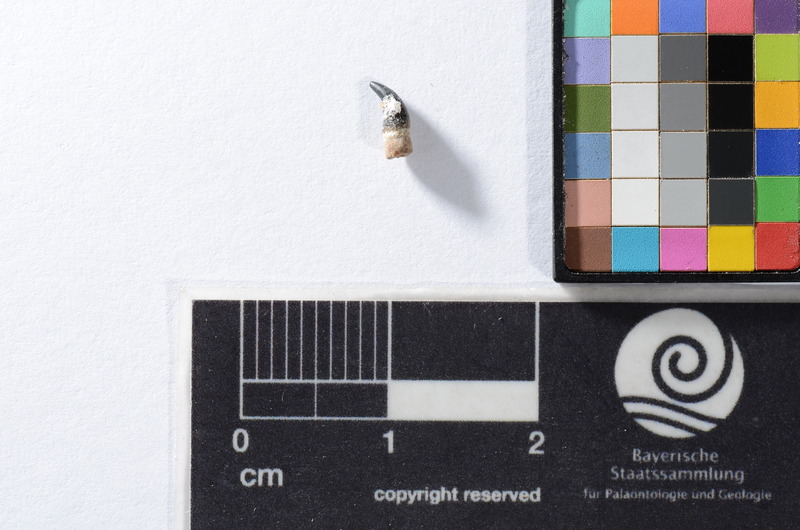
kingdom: Animalia
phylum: Chordata
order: Cypriniformes
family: Cyprinidae
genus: Capitodus
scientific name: Capitodus
